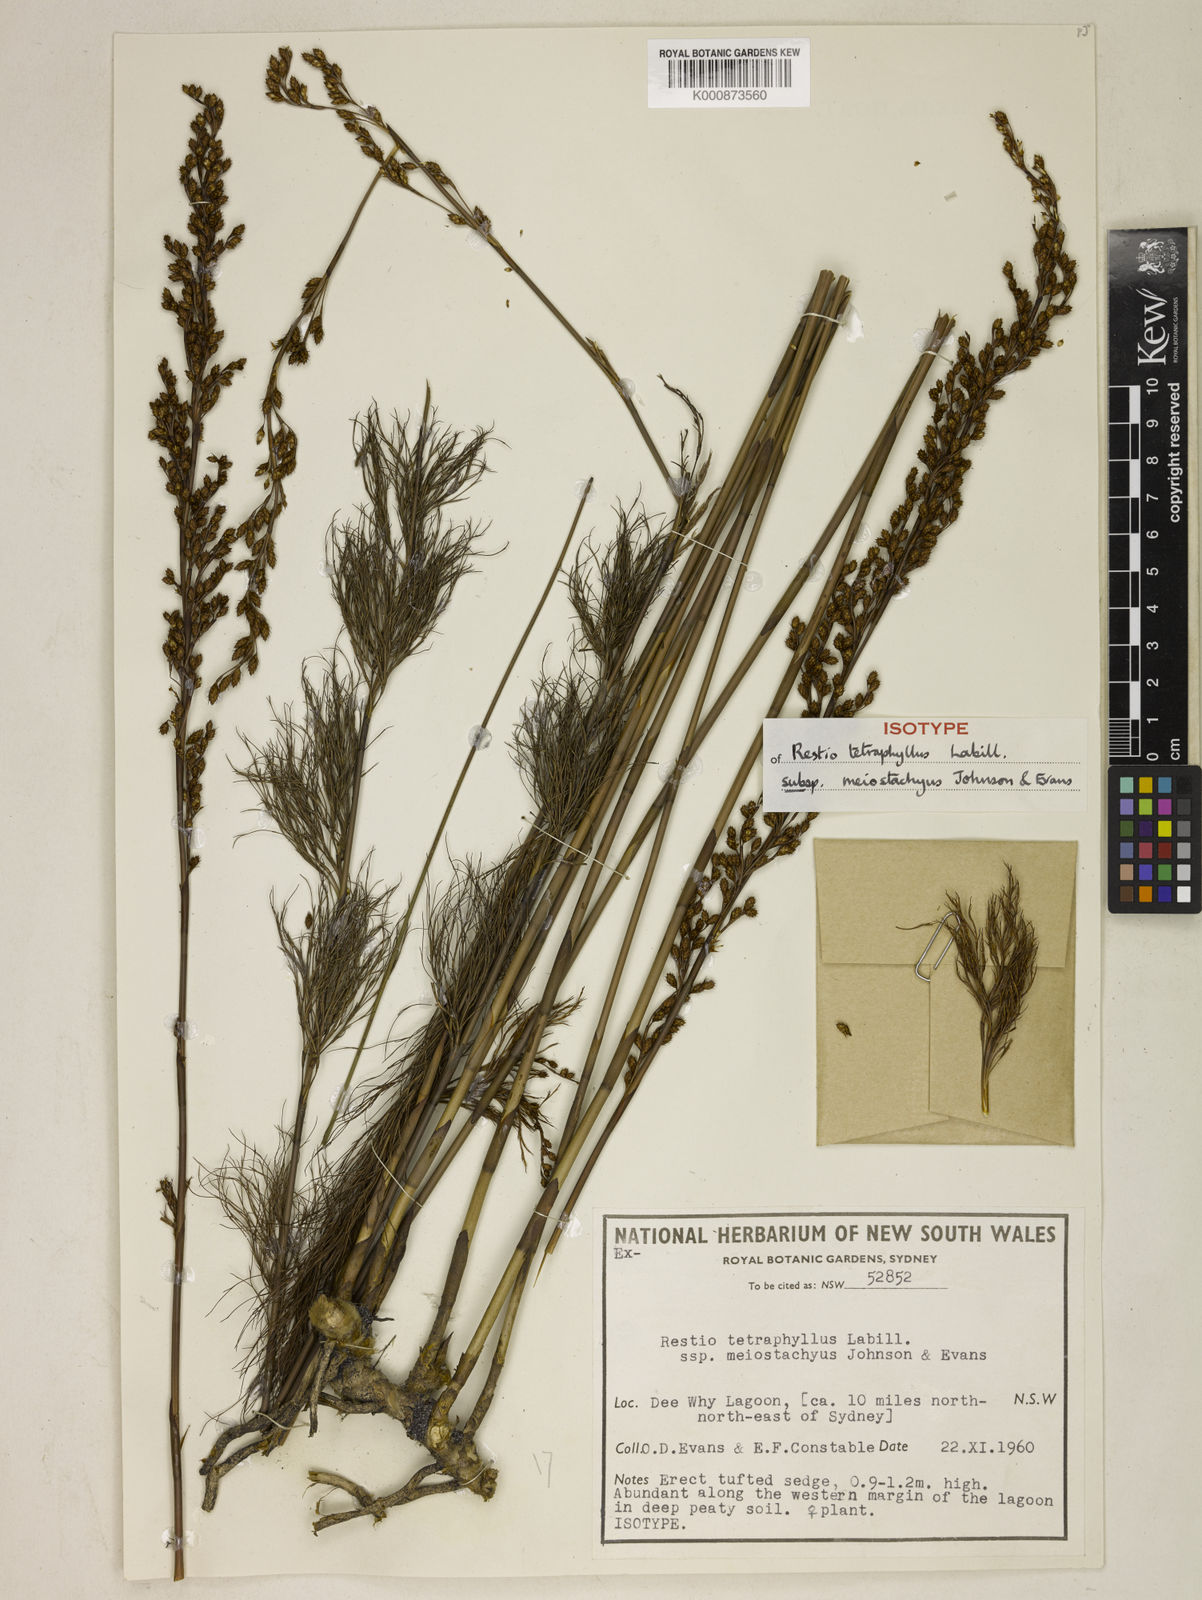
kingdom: Plantae
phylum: Tracheophyta
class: Liliopsida
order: Poales
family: Restionaceae
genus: Baloskion
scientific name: Baloskion tetraphyllum
